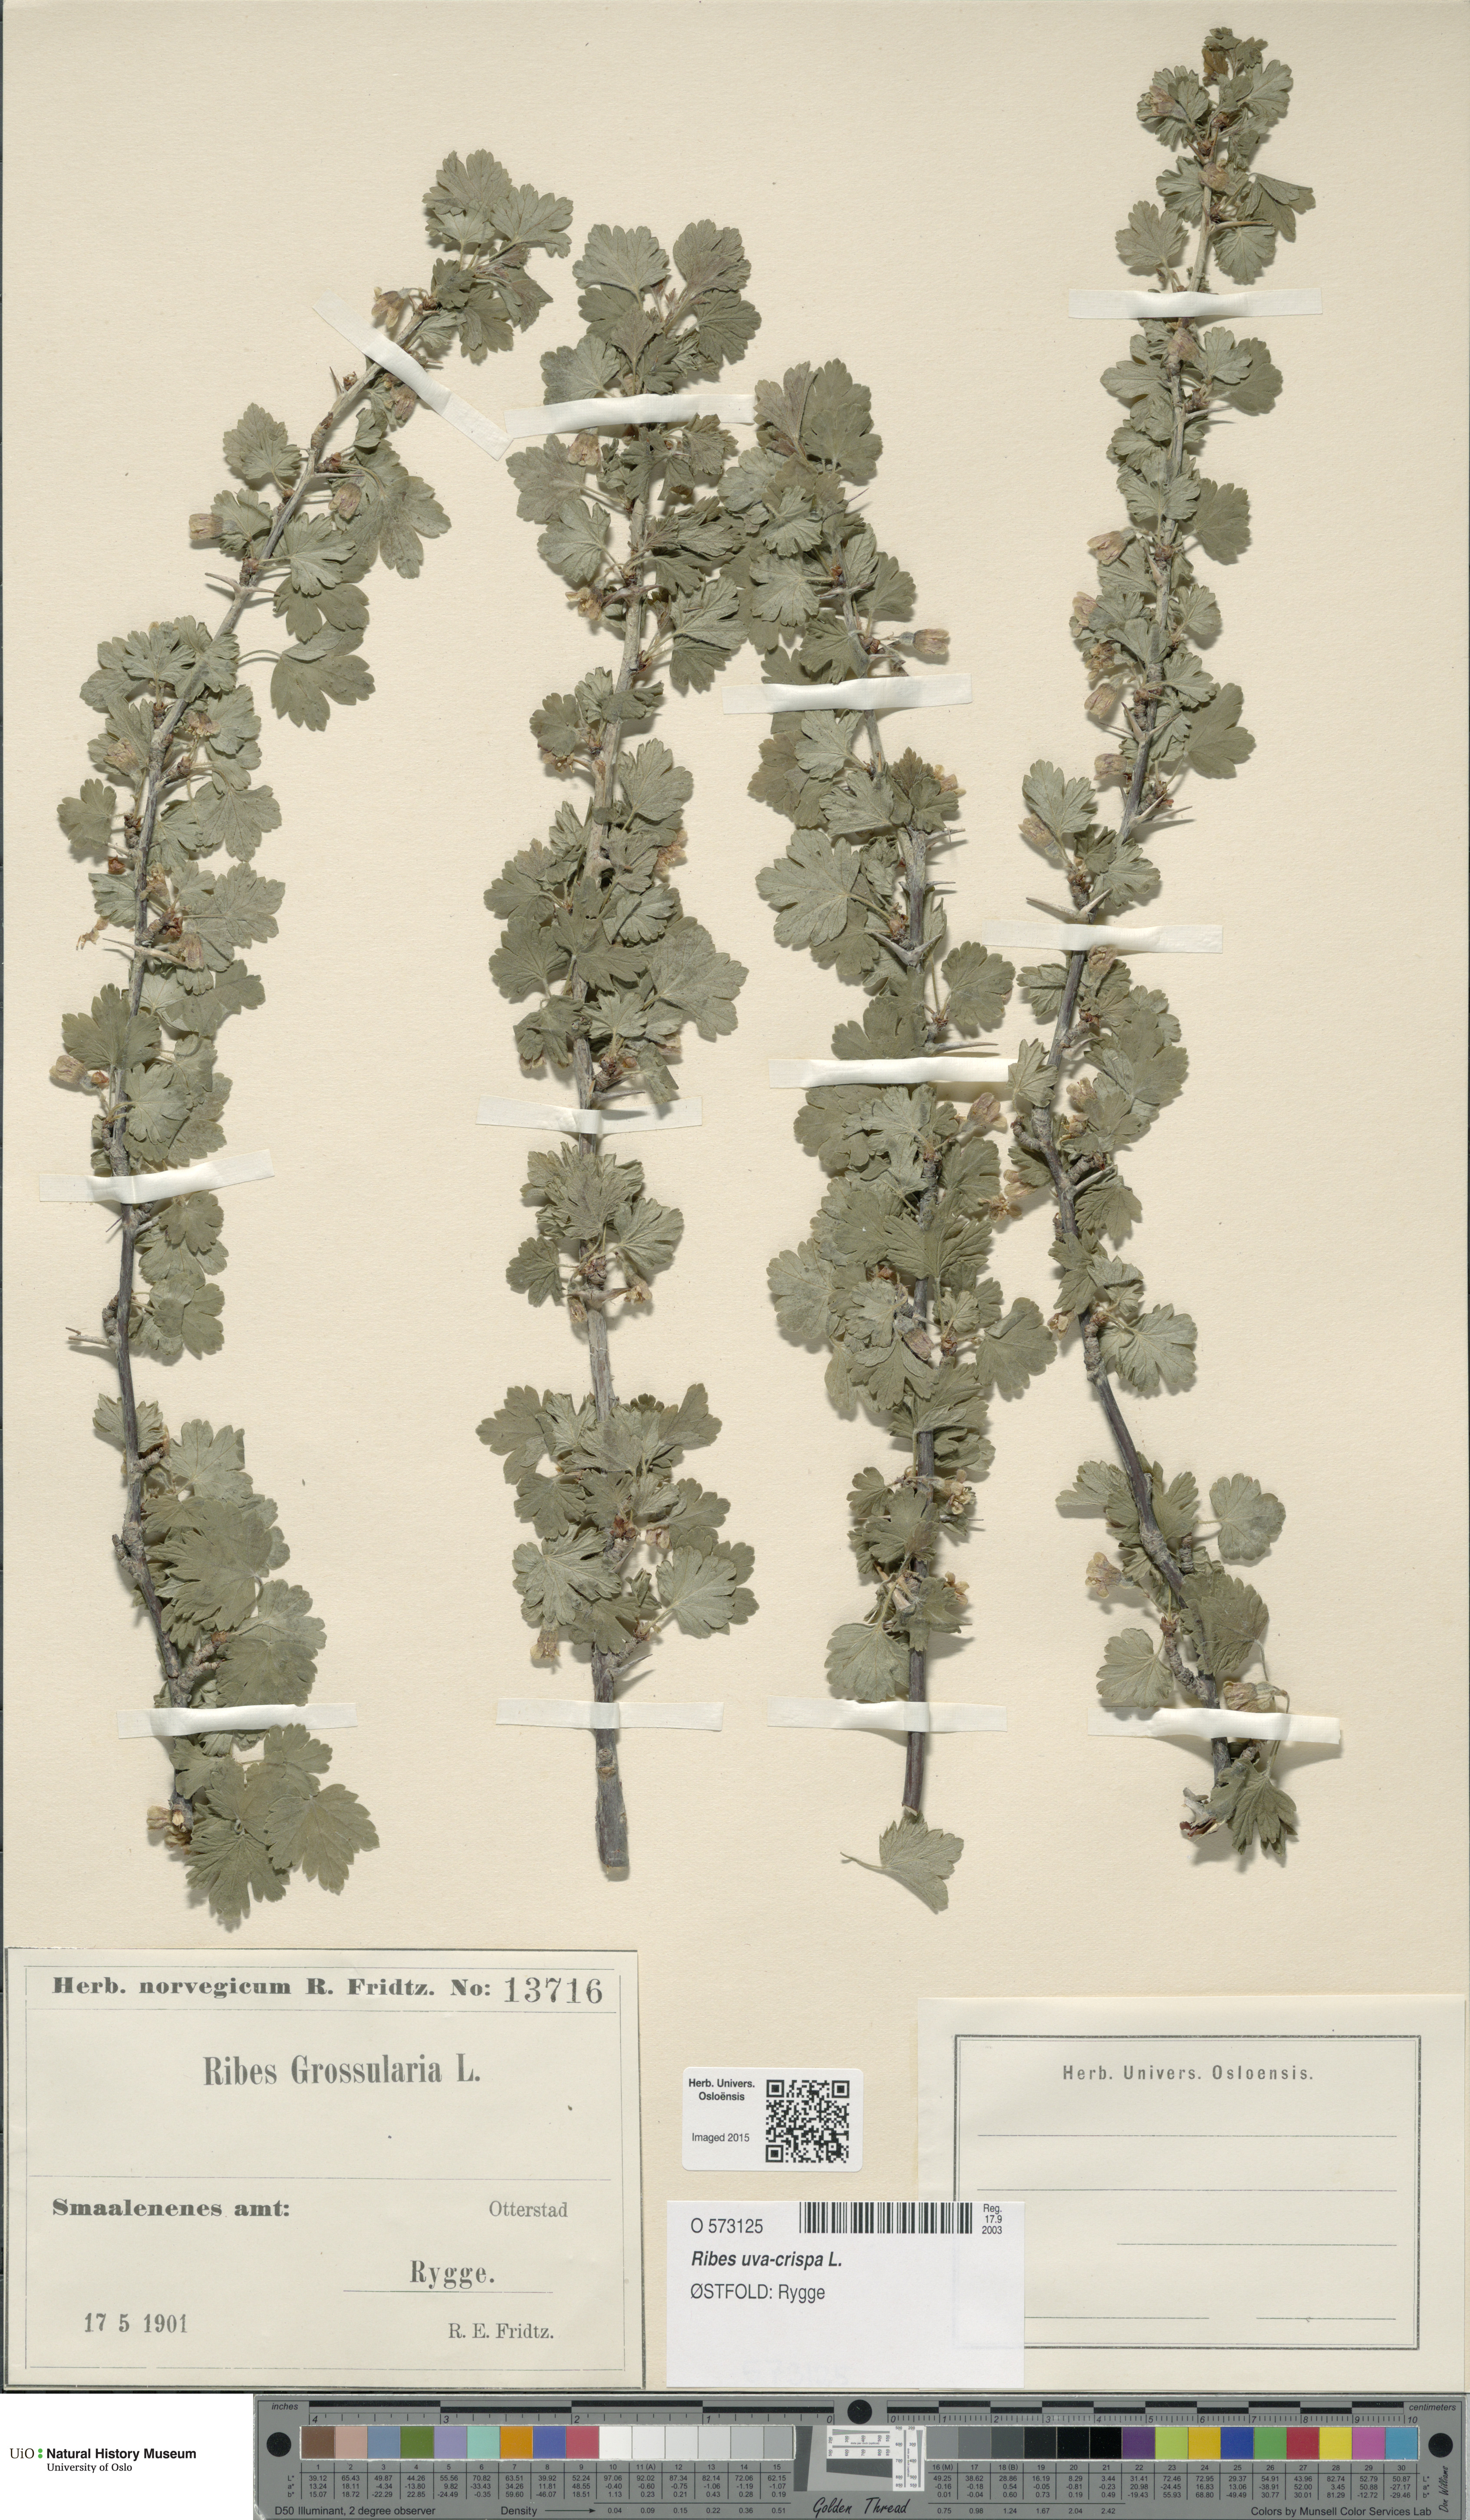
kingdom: Plantae
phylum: Tracheophyta
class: Magnoliopsida
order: Saxifragales
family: Grossulariaceae
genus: Ribes
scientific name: Ribes uva-crispa
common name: Gooseberry
